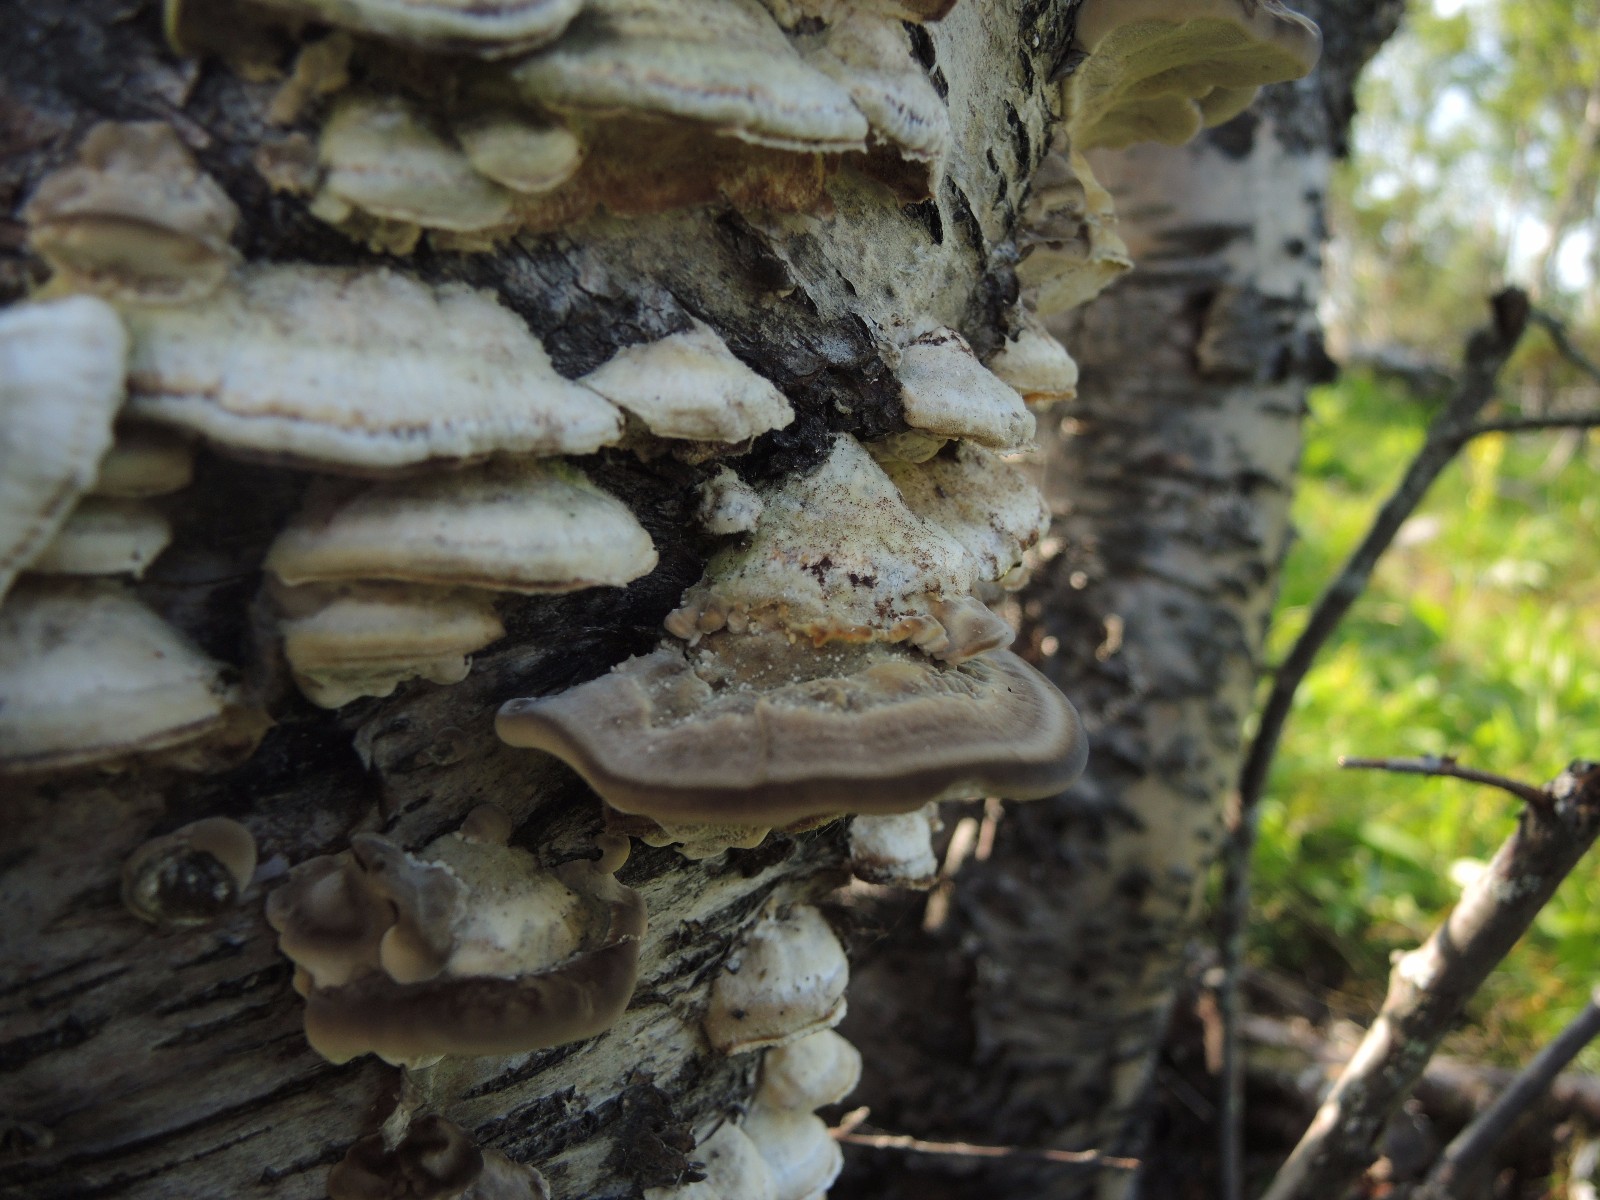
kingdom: Fungi
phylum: Basidiomycota
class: Agaricomycetes
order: Polyporales
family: Polyporaceae
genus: Trametes
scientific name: Trametes pubescens
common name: dunet læderporesvamp
